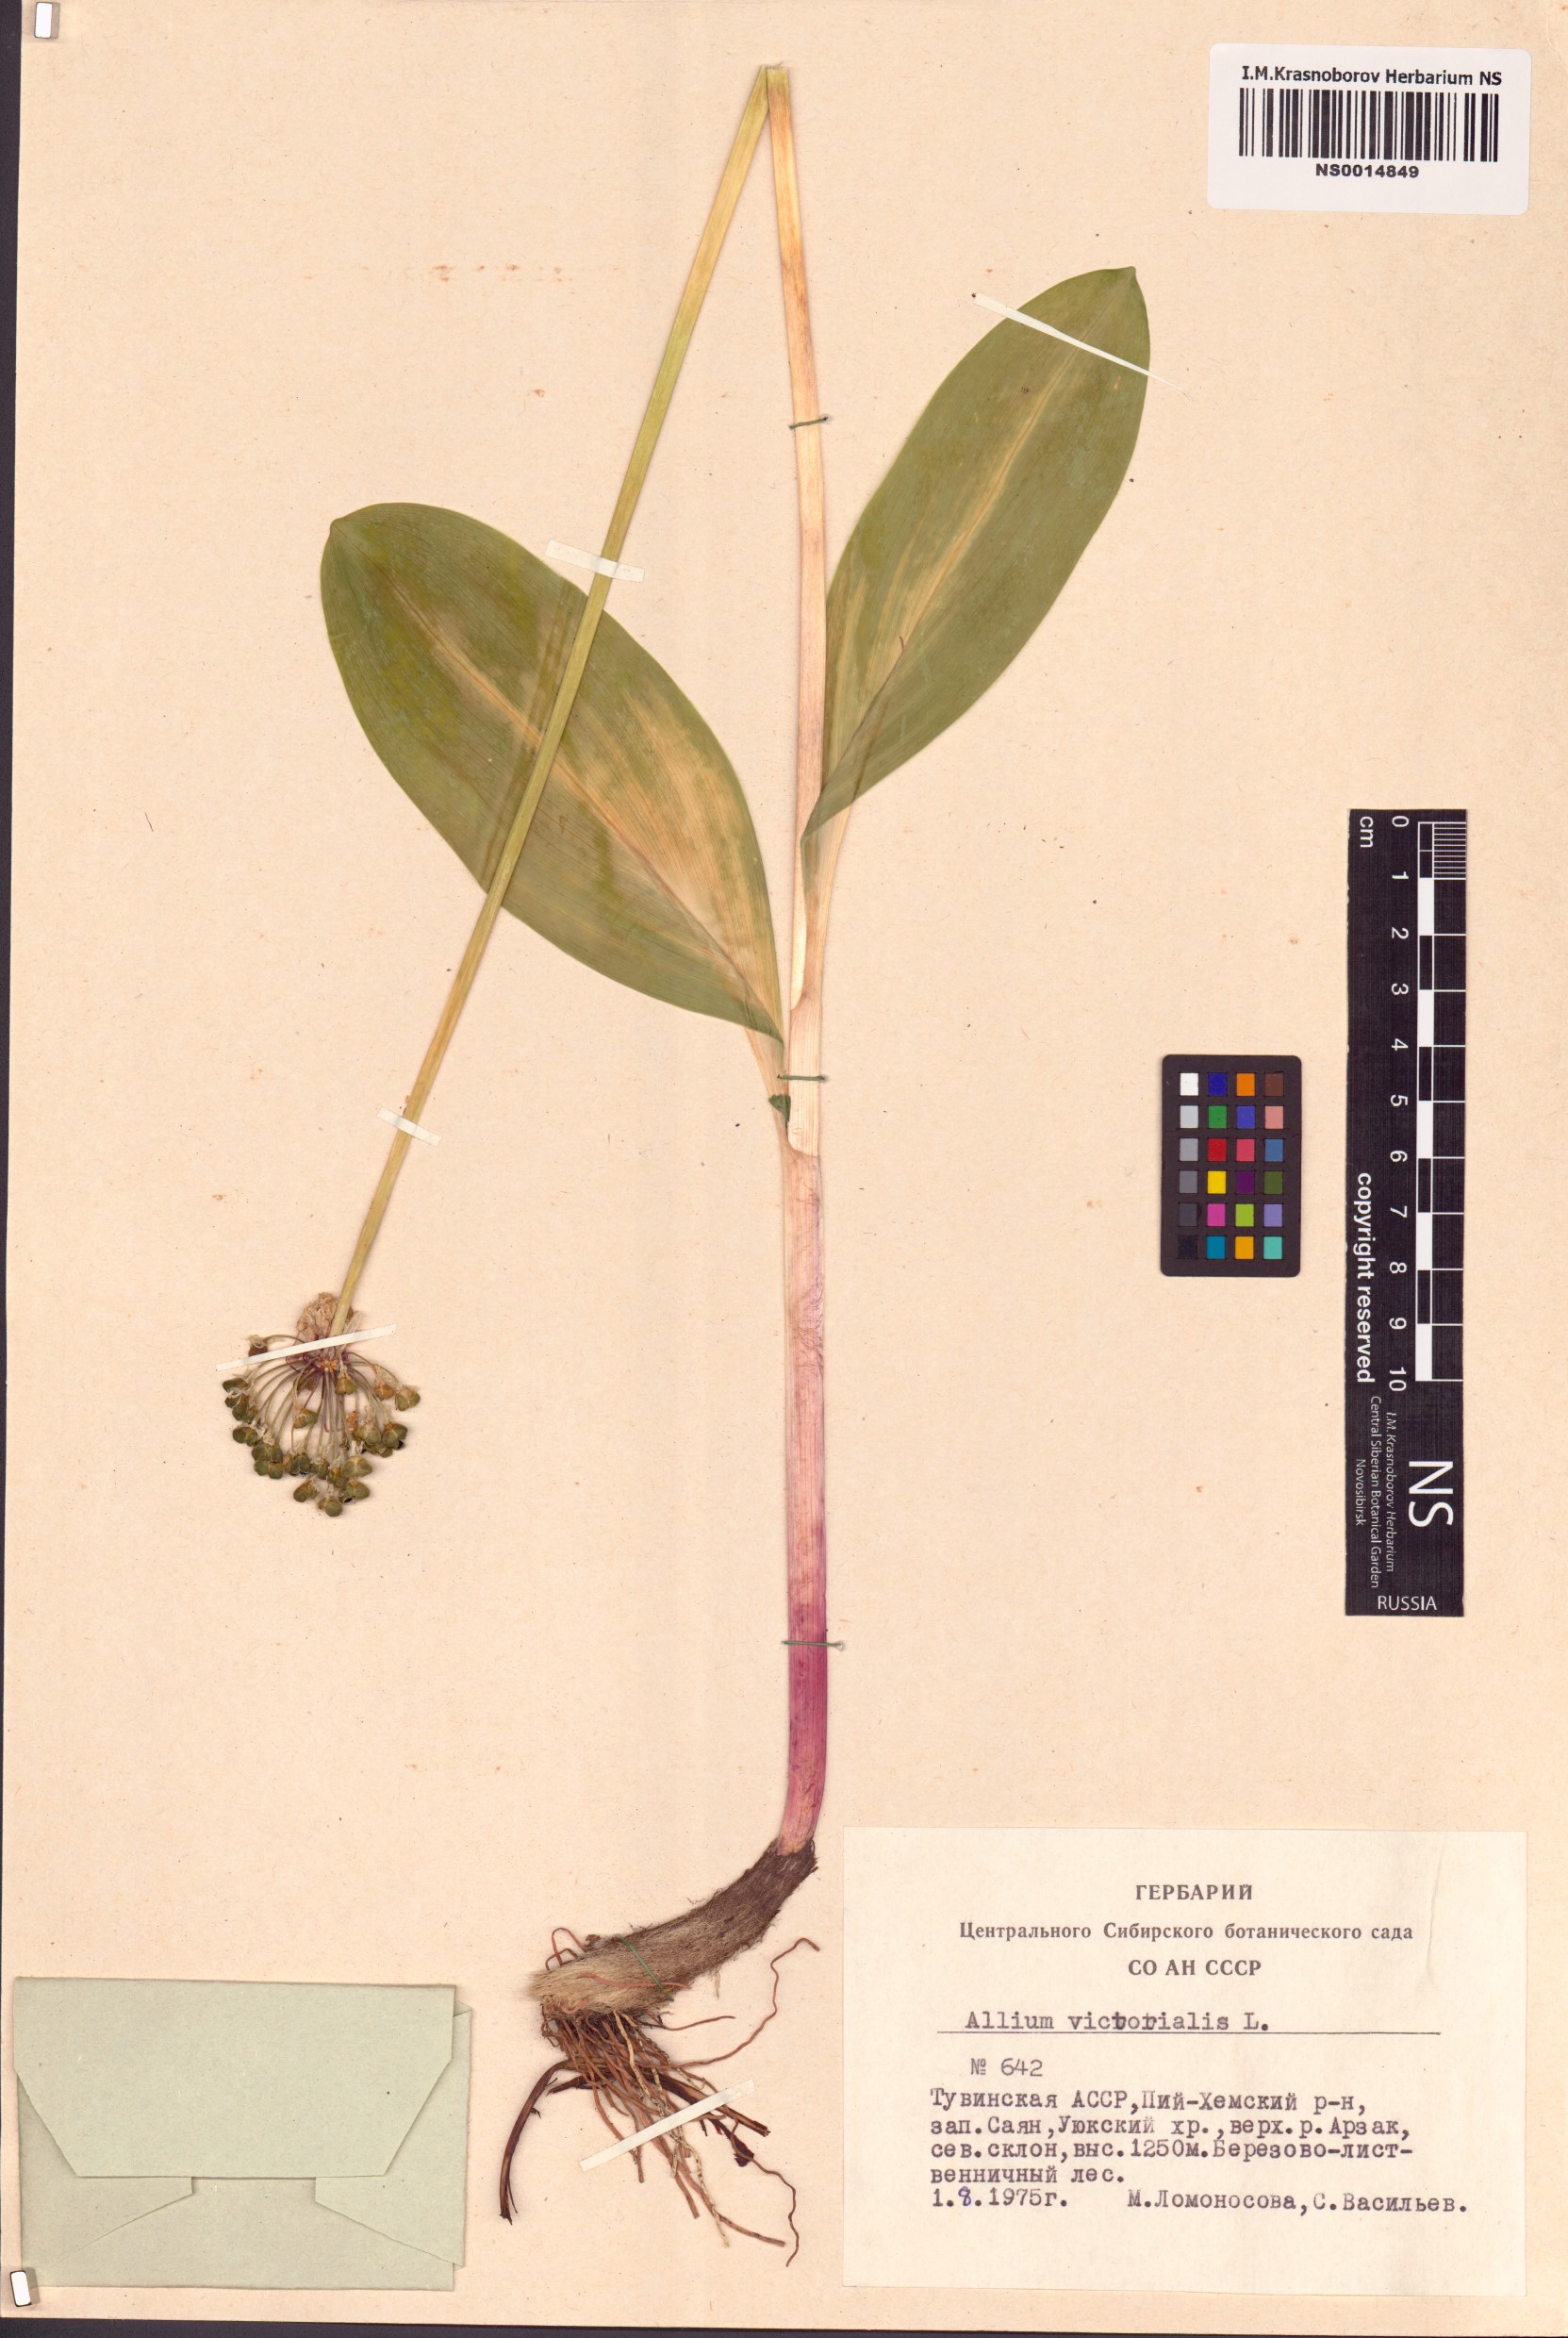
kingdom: Plantae
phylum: Tracheophyta
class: Liliopsida
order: Asparagales
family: Amaryllidaceae
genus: Allium
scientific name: Allium victorialis
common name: Alpine leek
